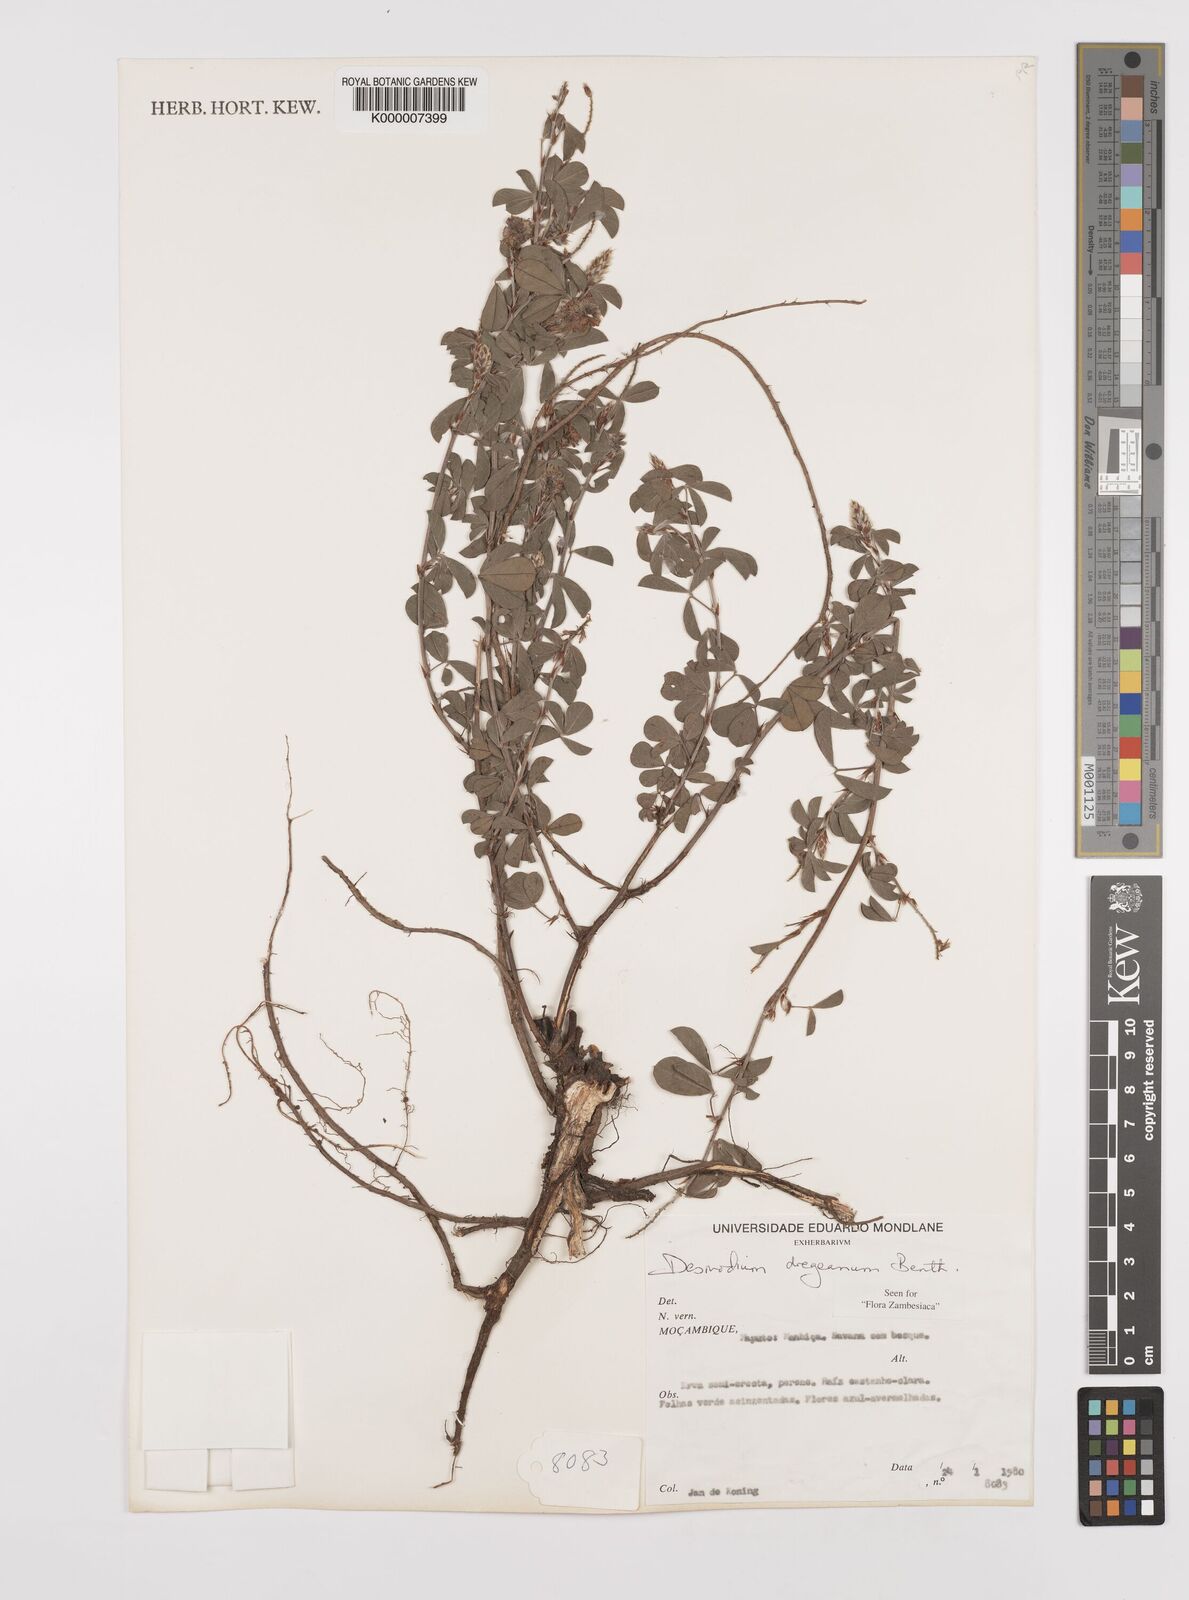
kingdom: Plantae
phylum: Tracheophyta
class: Magnoliopsida
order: Fabales
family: Fabaceae
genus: Grona
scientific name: Grona caffra
